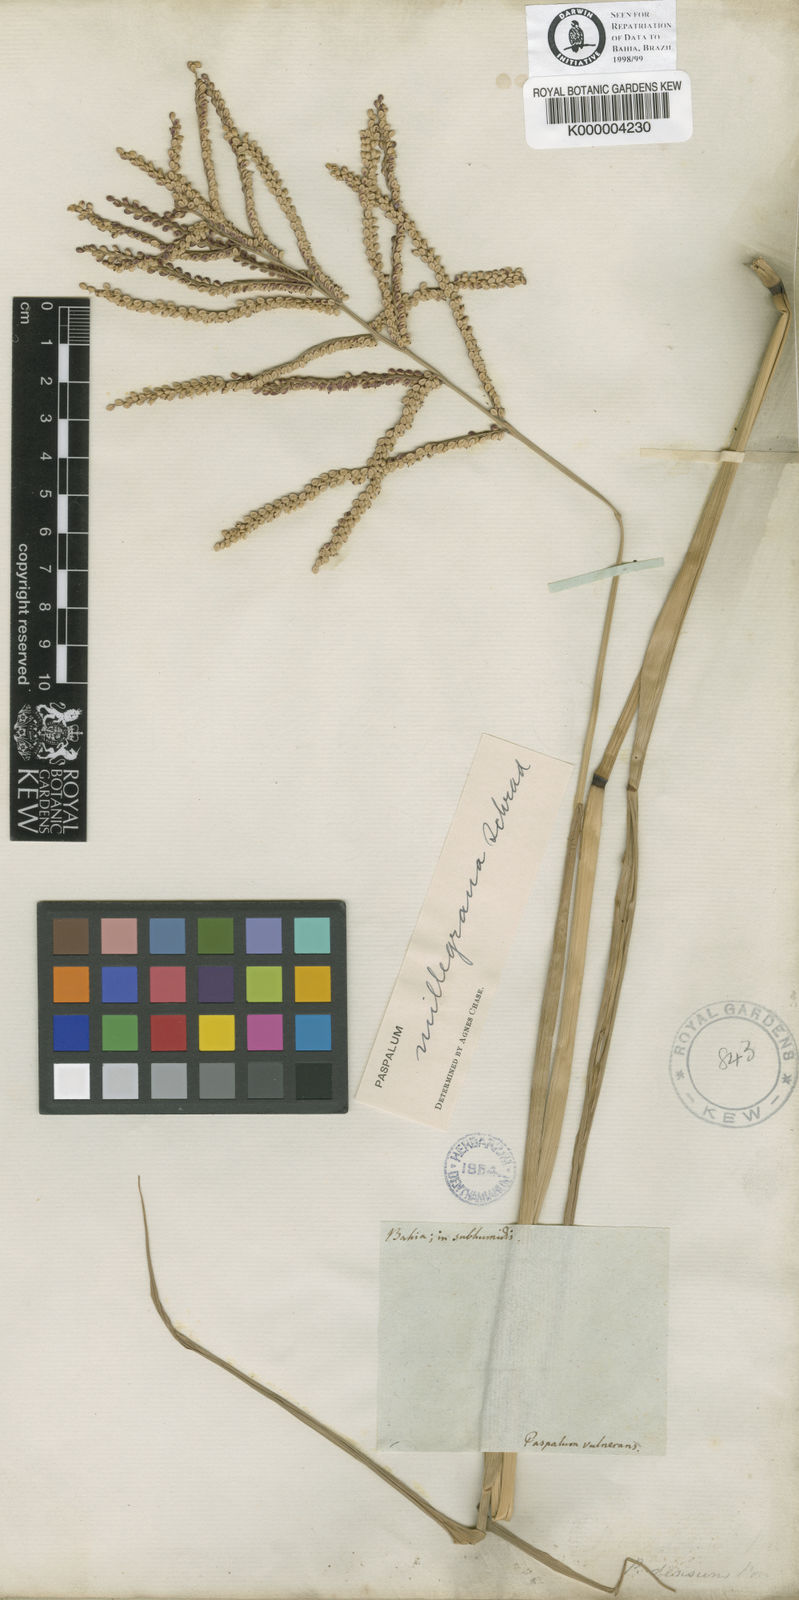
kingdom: Plantae
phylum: Tracheophyta
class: Liliopsida
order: Poales
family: Poaceae
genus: Paspalum
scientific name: Paspalum
